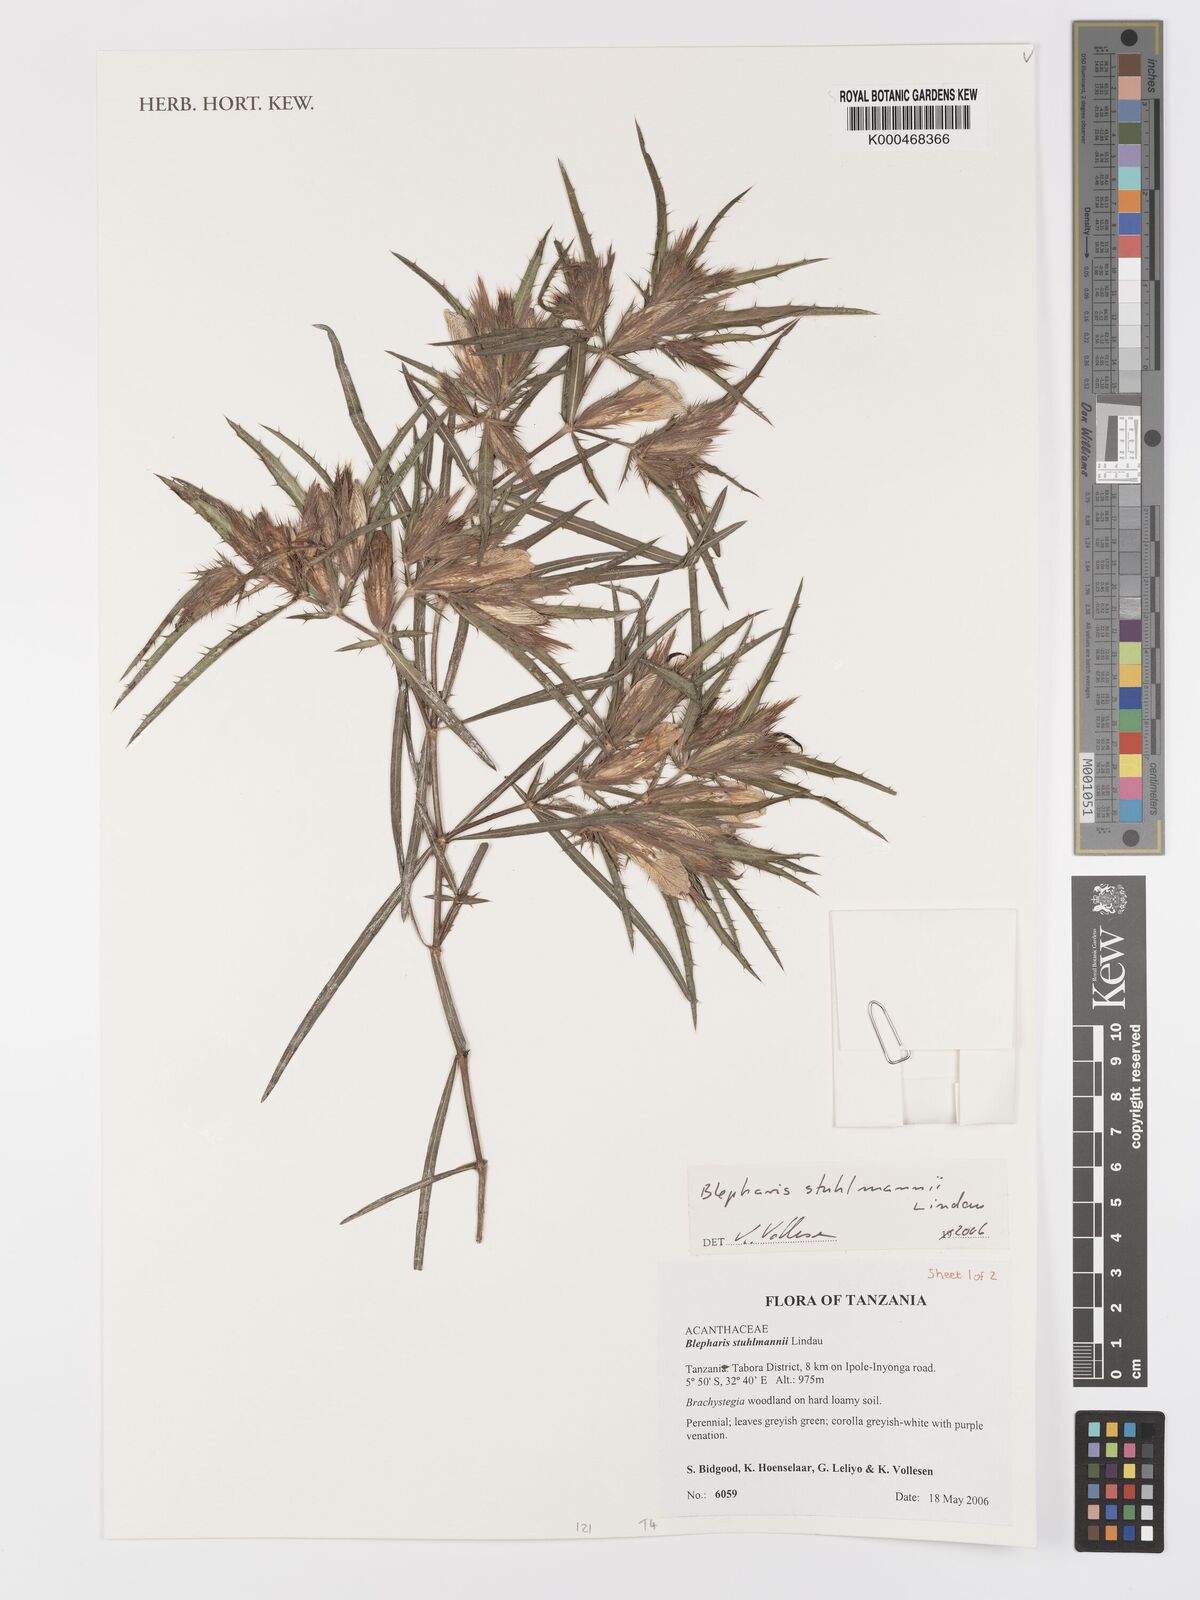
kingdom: Plantae
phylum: Tracheophyta
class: Magnoliopsida
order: Lamiales
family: Acanthaceae
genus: Blepharis
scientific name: Blepharis stuhlmannii
